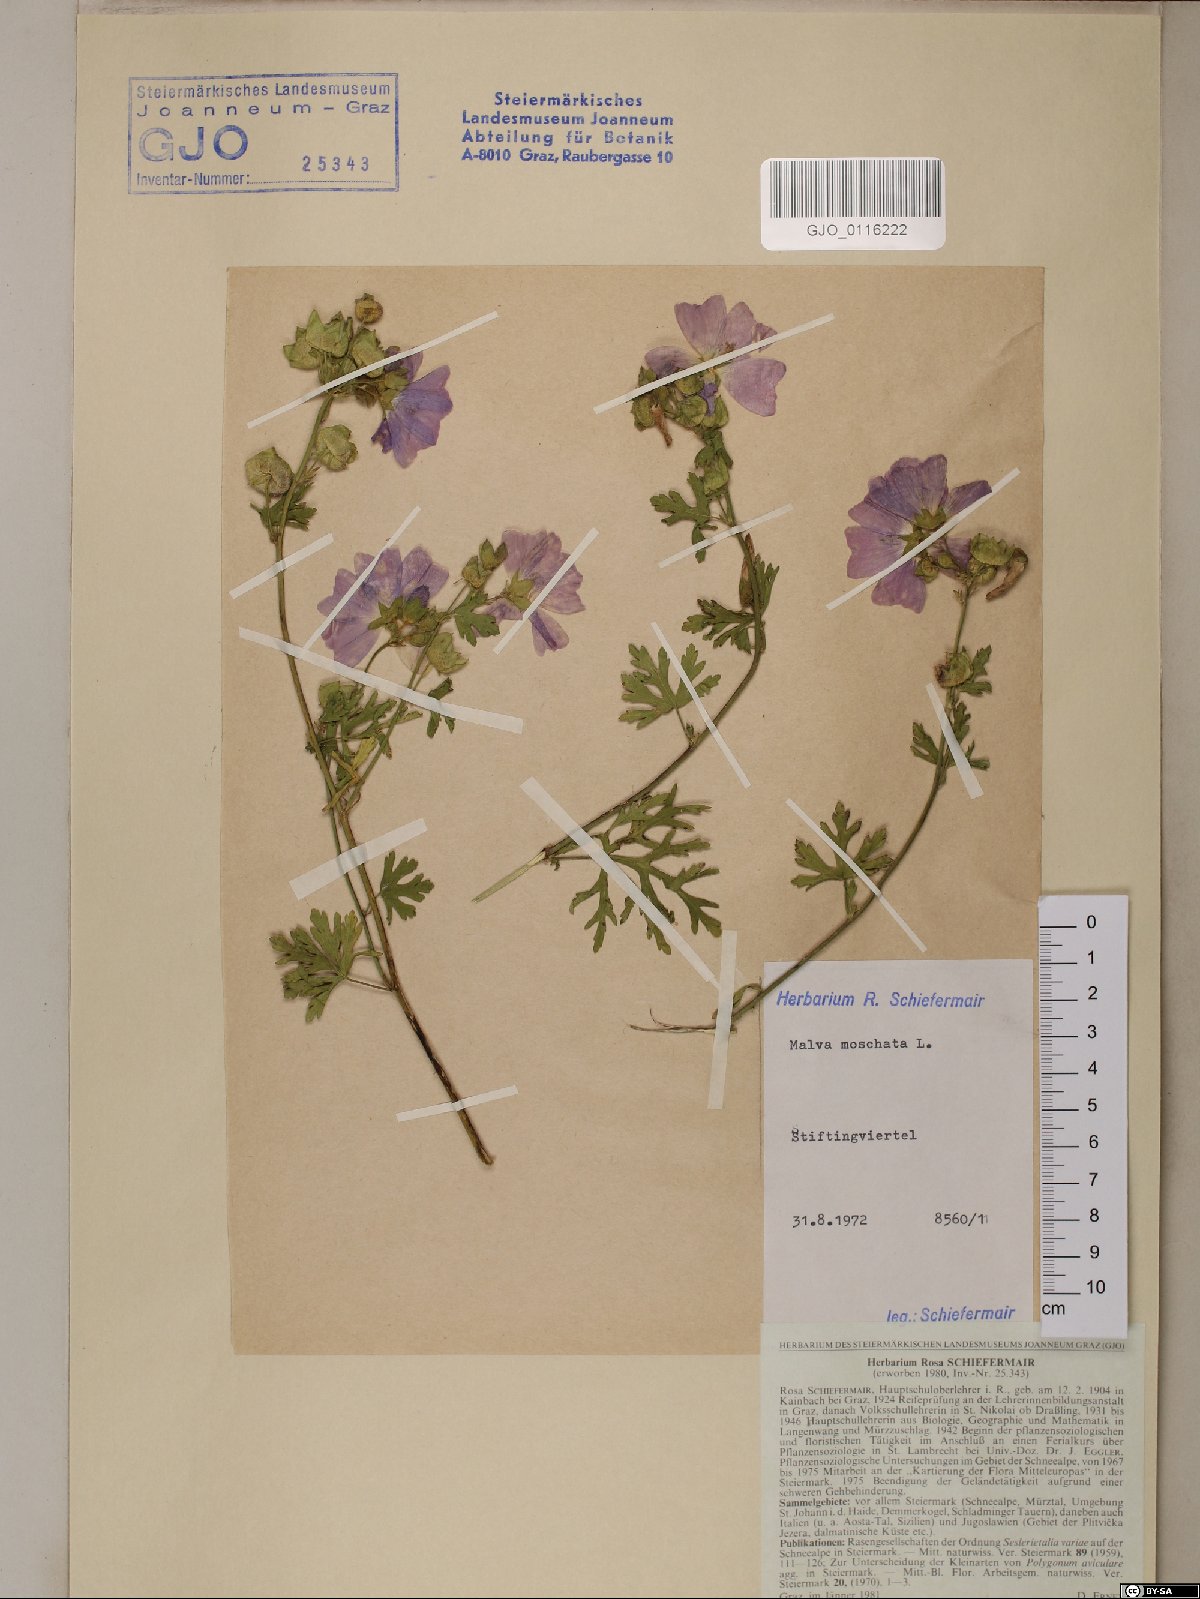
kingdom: Plantae
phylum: Tracheophyta
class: Magnoliopsida
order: Malvales
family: Malvaceae
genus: Malva
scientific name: Malva moschata
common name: Musk mallow
